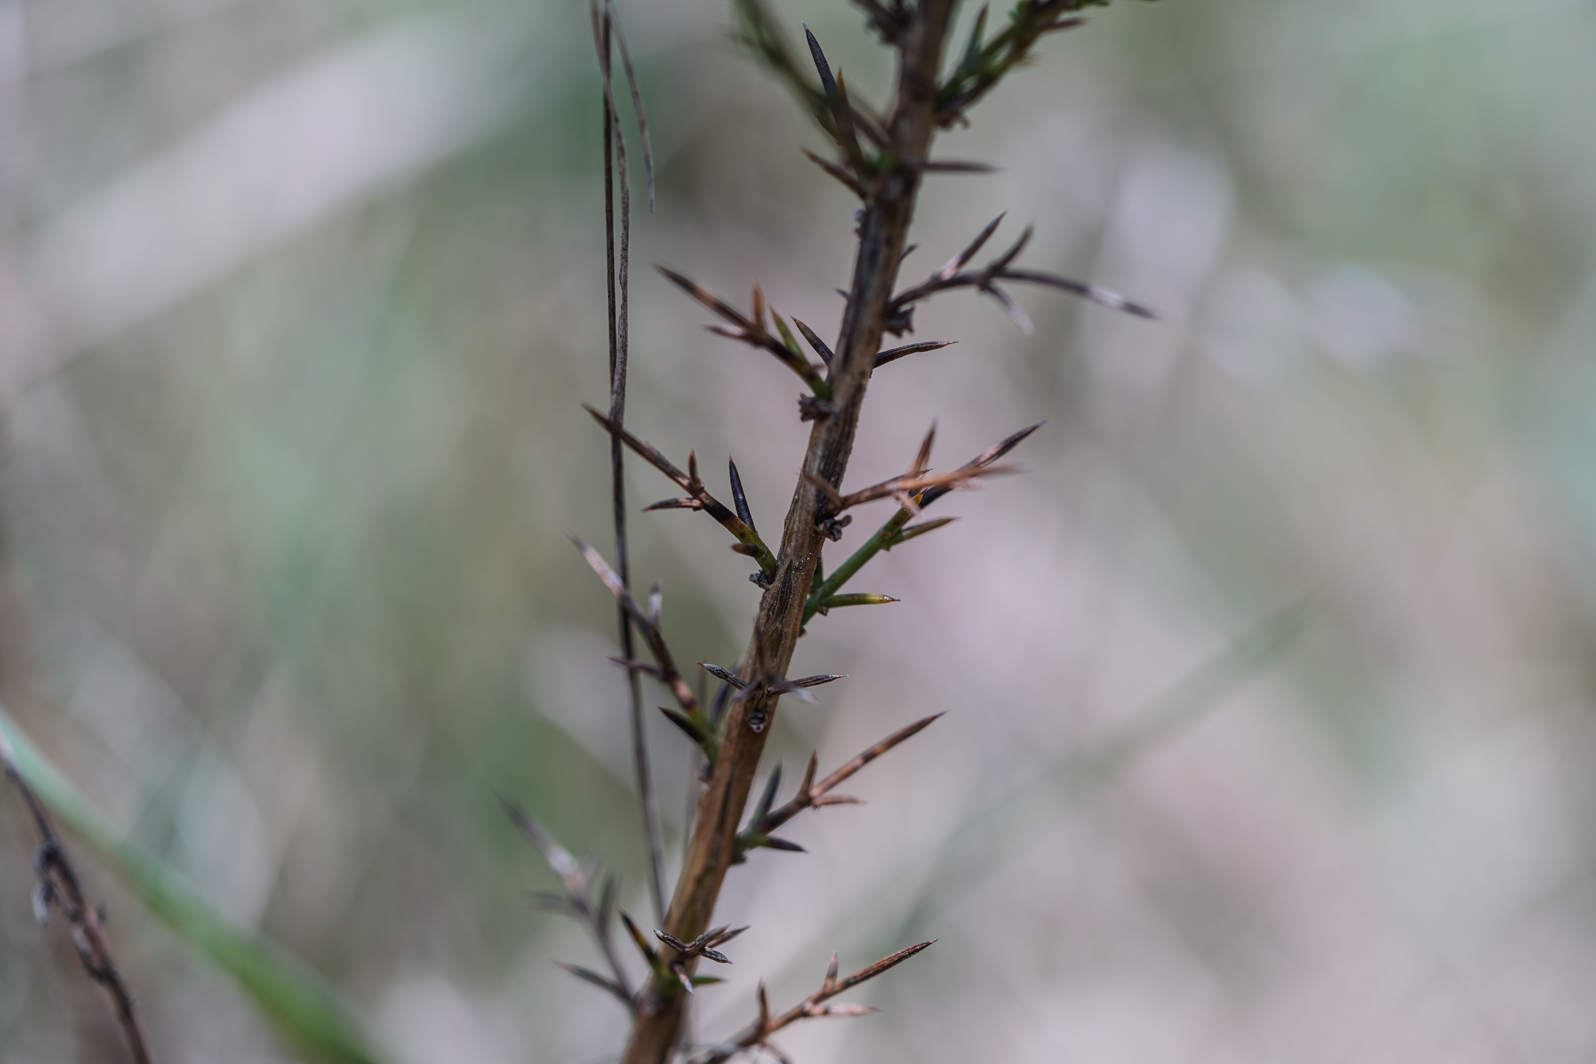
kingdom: Plantae
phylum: Tracheophyta
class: Magnoliopsida
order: Fabales
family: Fabaceae
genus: Genista
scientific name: Genista germanica
